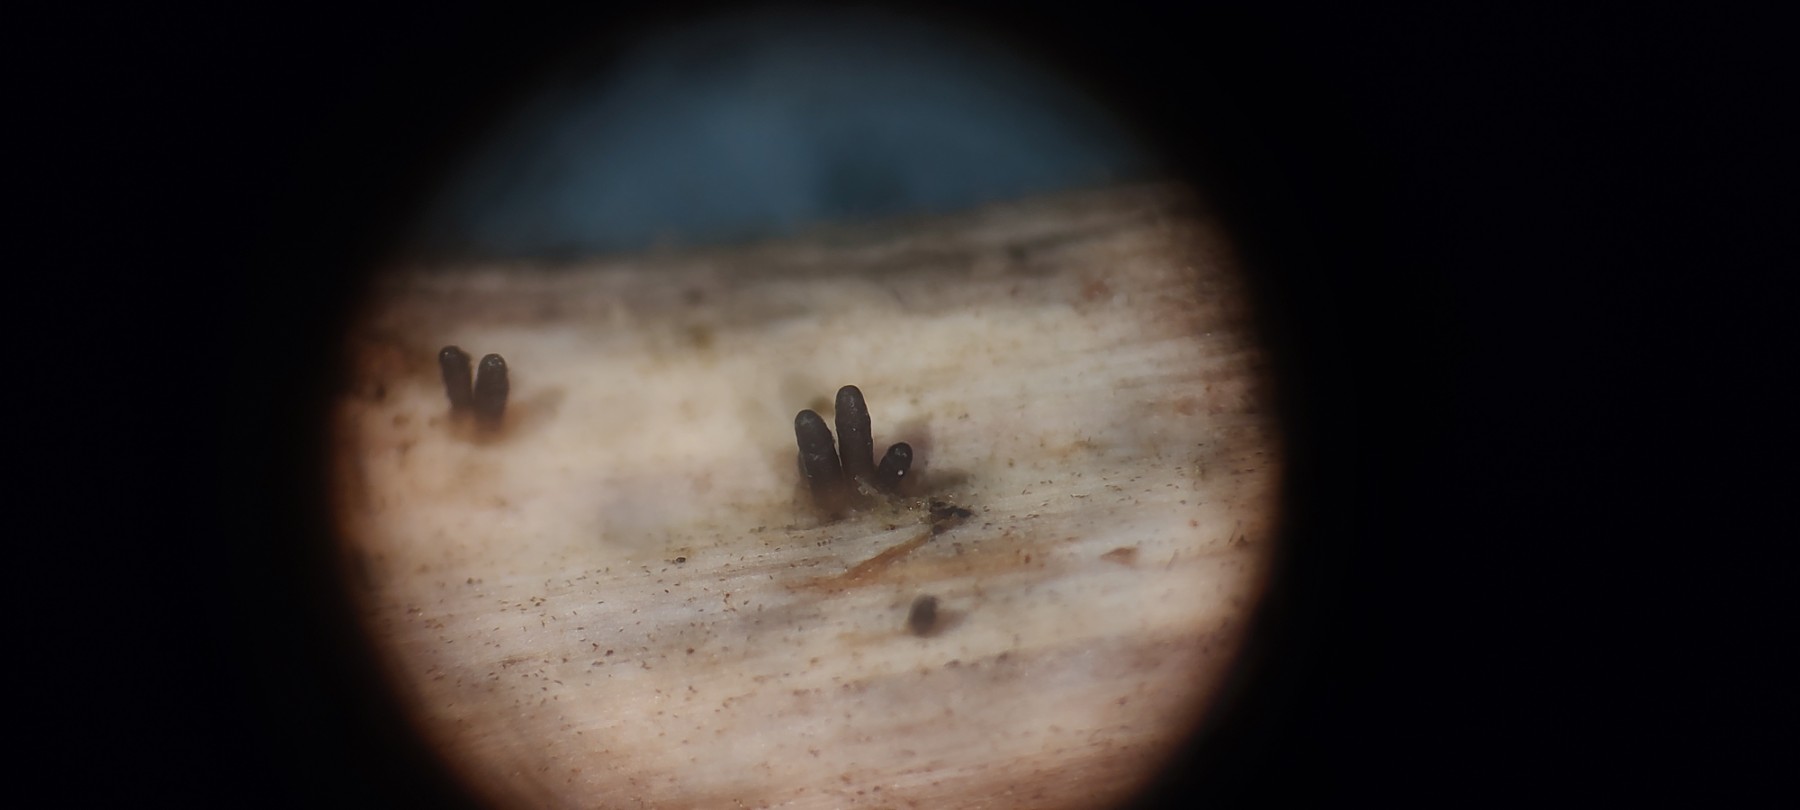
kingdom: Fungi
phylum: Ascomycota
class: Dothideomycetes
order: Acrospermales
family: Acrospermaceae
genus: Acrospermum
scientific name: Acrospermum compressum
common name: nælde-stængeltunge
